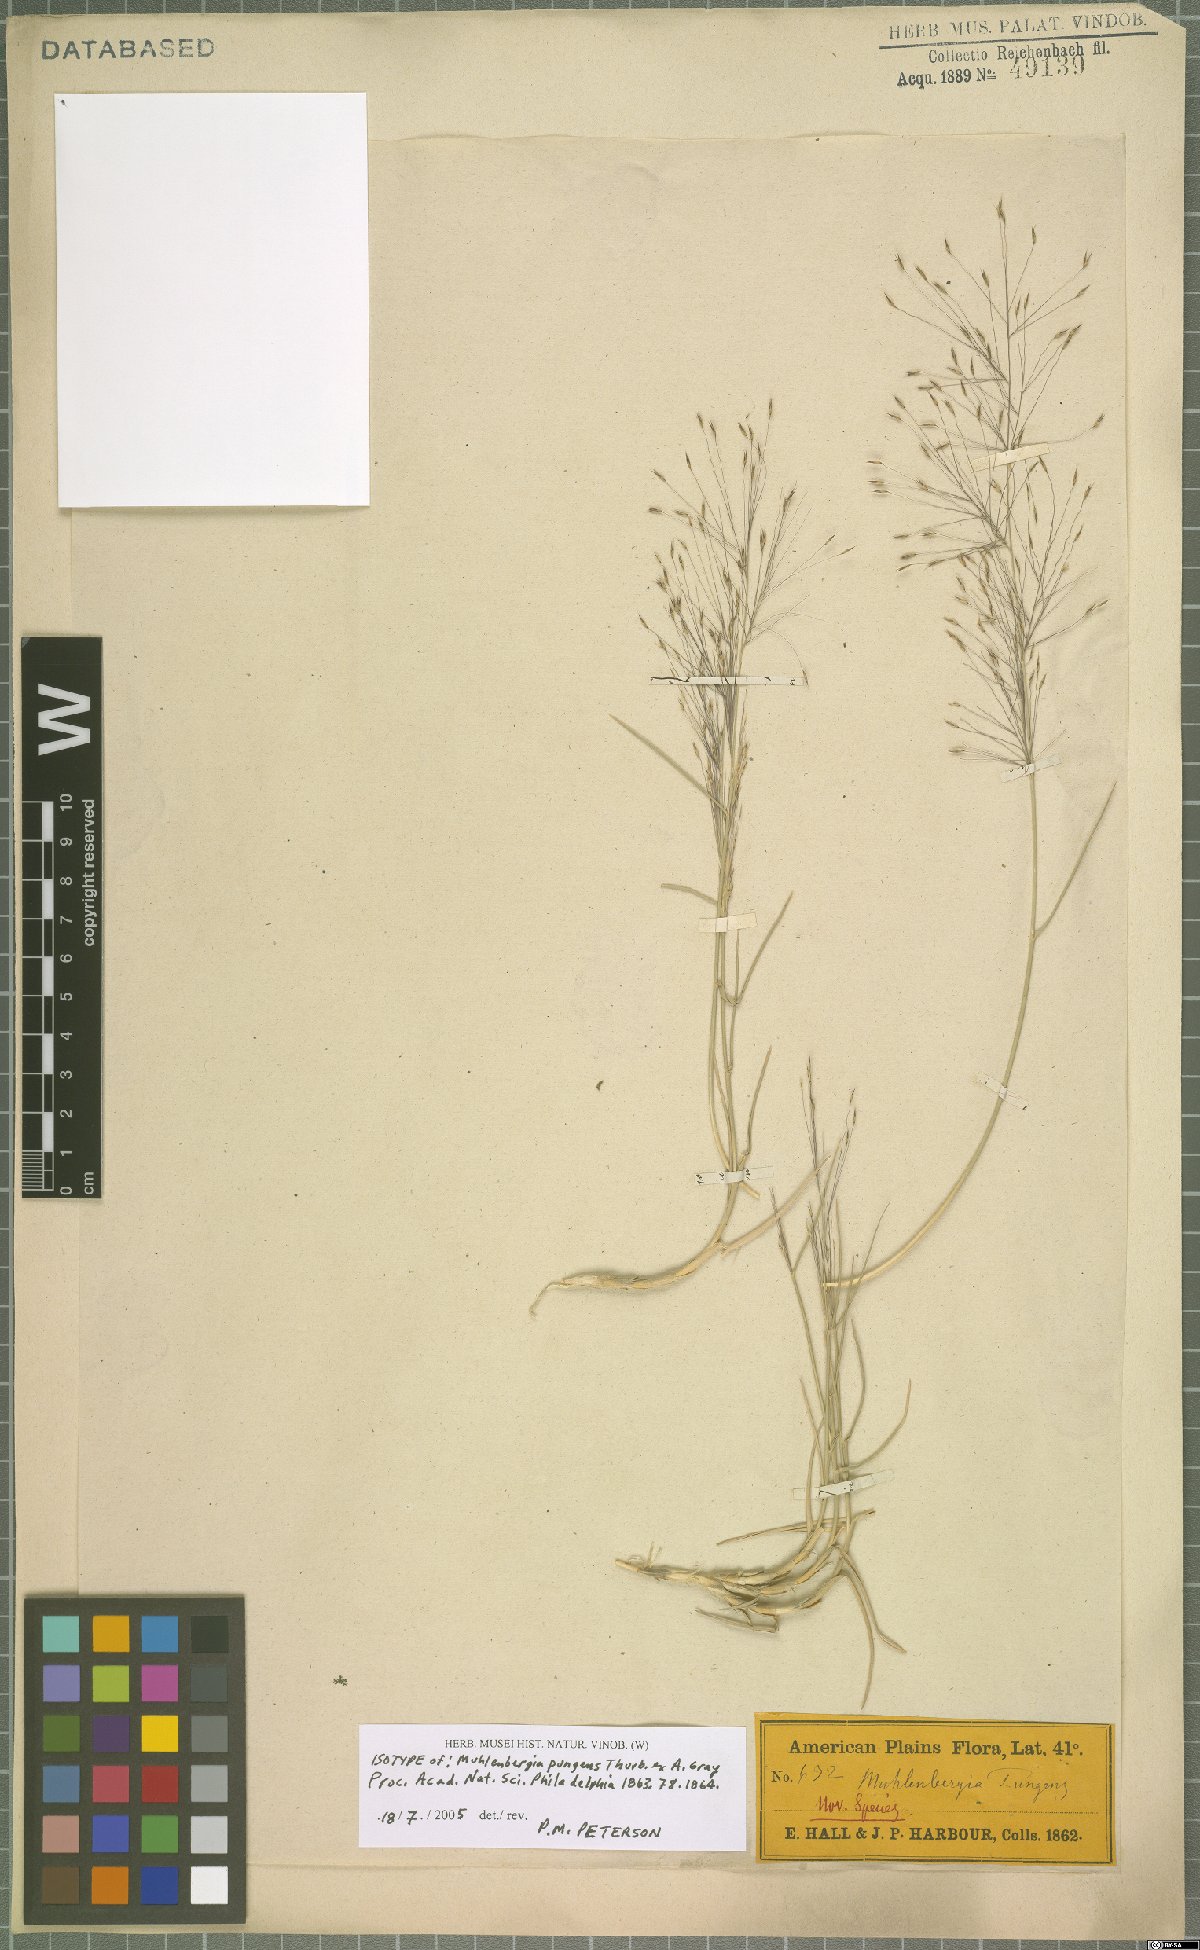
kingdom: Plantae
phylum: Tracheophyta
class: Liliopsida
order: Poales
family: Poaceae
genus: Muhlenbergia
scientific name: Muhlenbergia pungens
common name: Sandhill muhly
